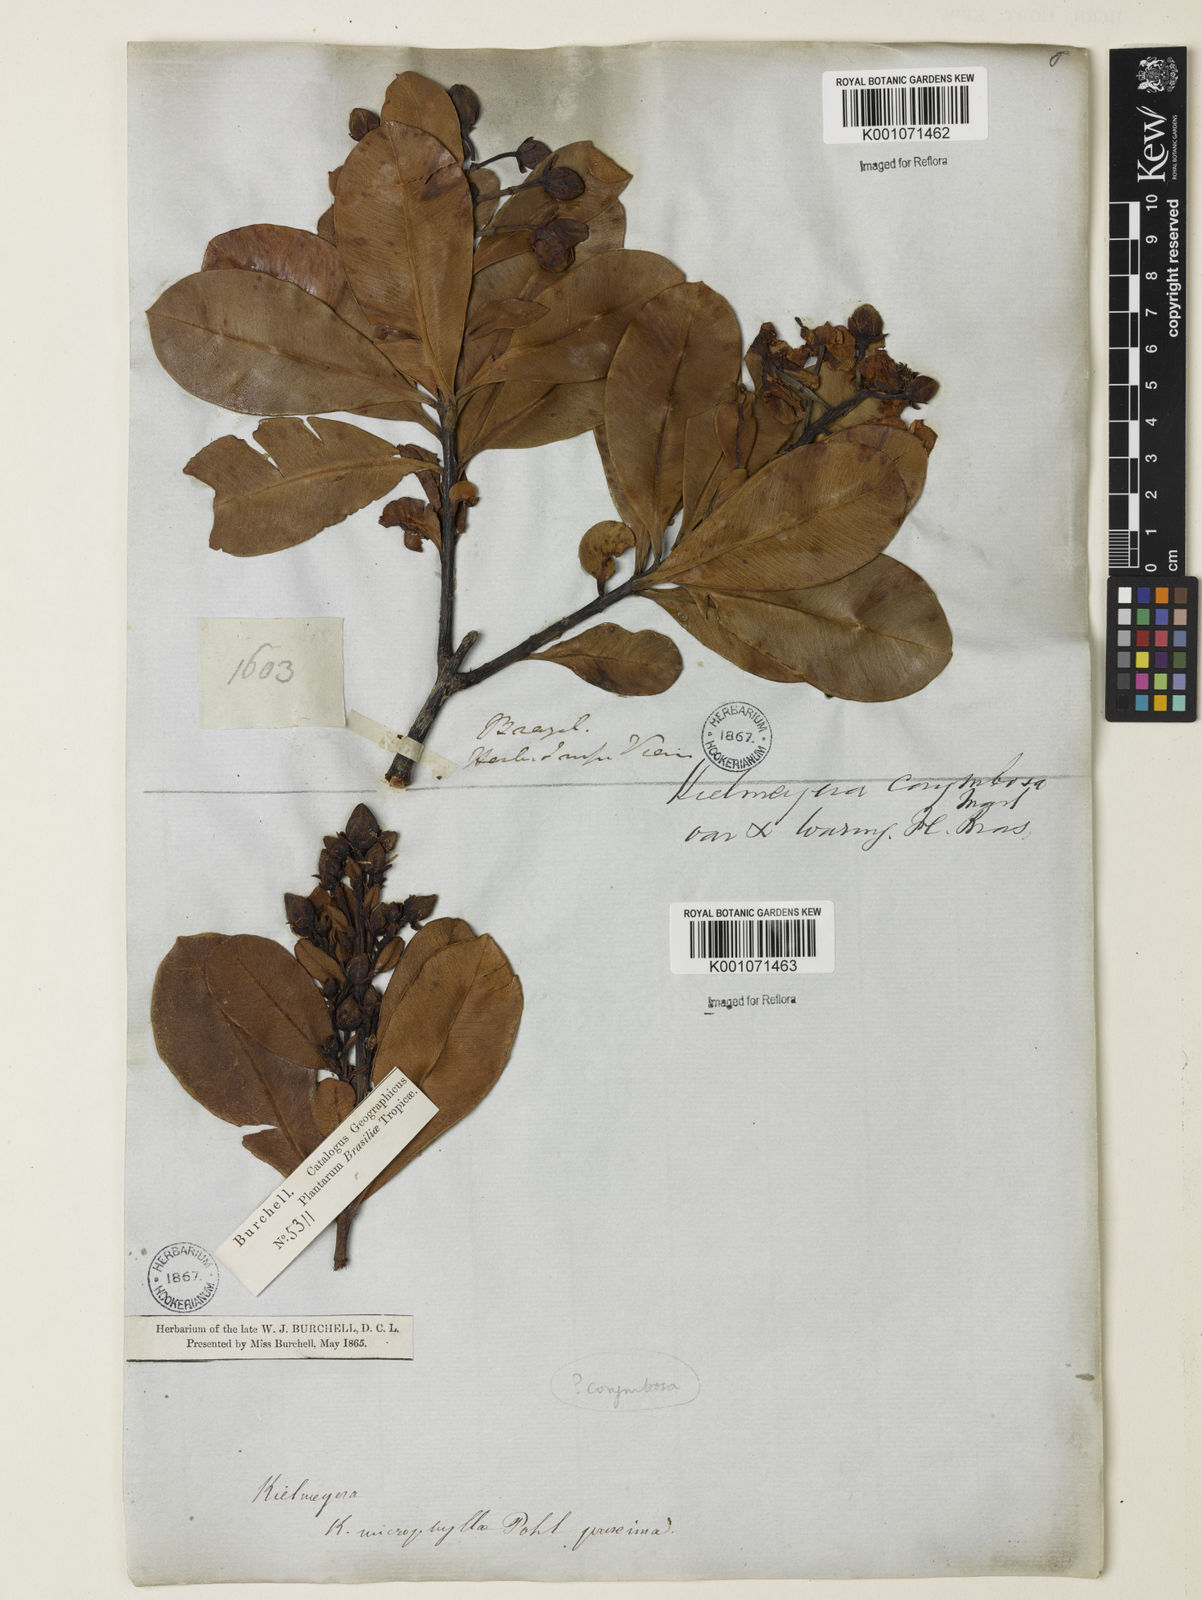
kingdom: Plantae
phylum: Tracheophyta
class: Magnoliopsida
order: Malpighiales
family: Calophyllaceae
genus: Kielmeyera
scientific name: Kielmeyera corymbosa
